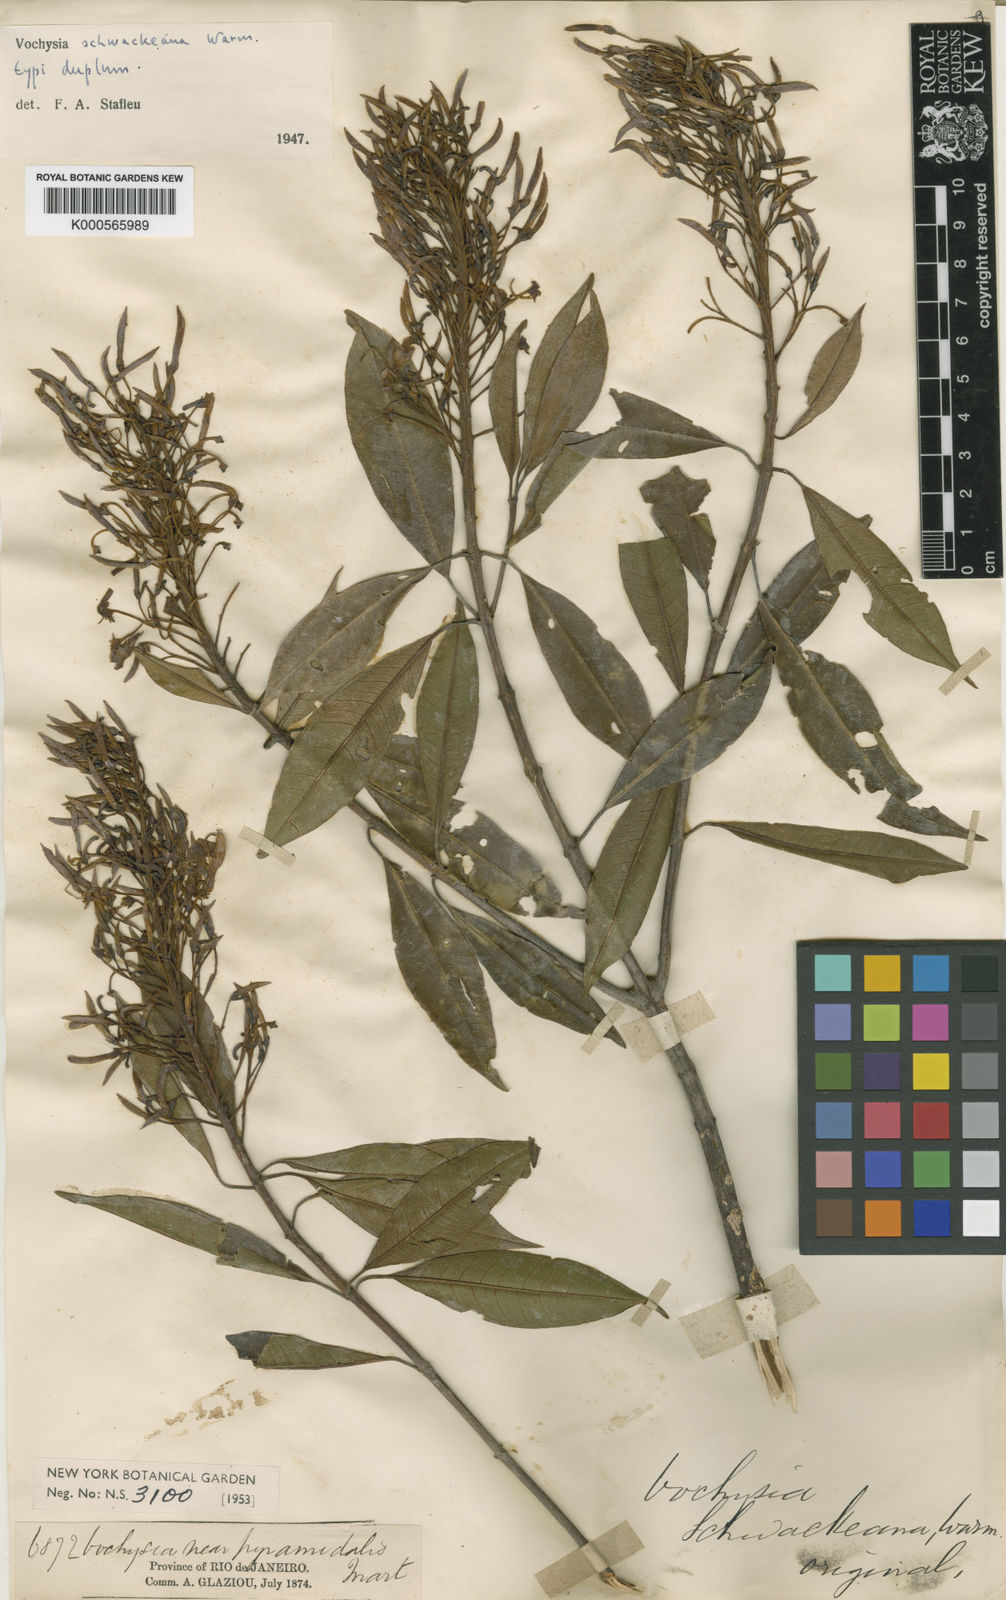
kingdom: Plantae
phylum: Tracheophyta
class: Magnoliopsida
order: Myrtales
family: Vochysiaceae
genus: Vochysia
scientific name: Vochysia schwackeana
